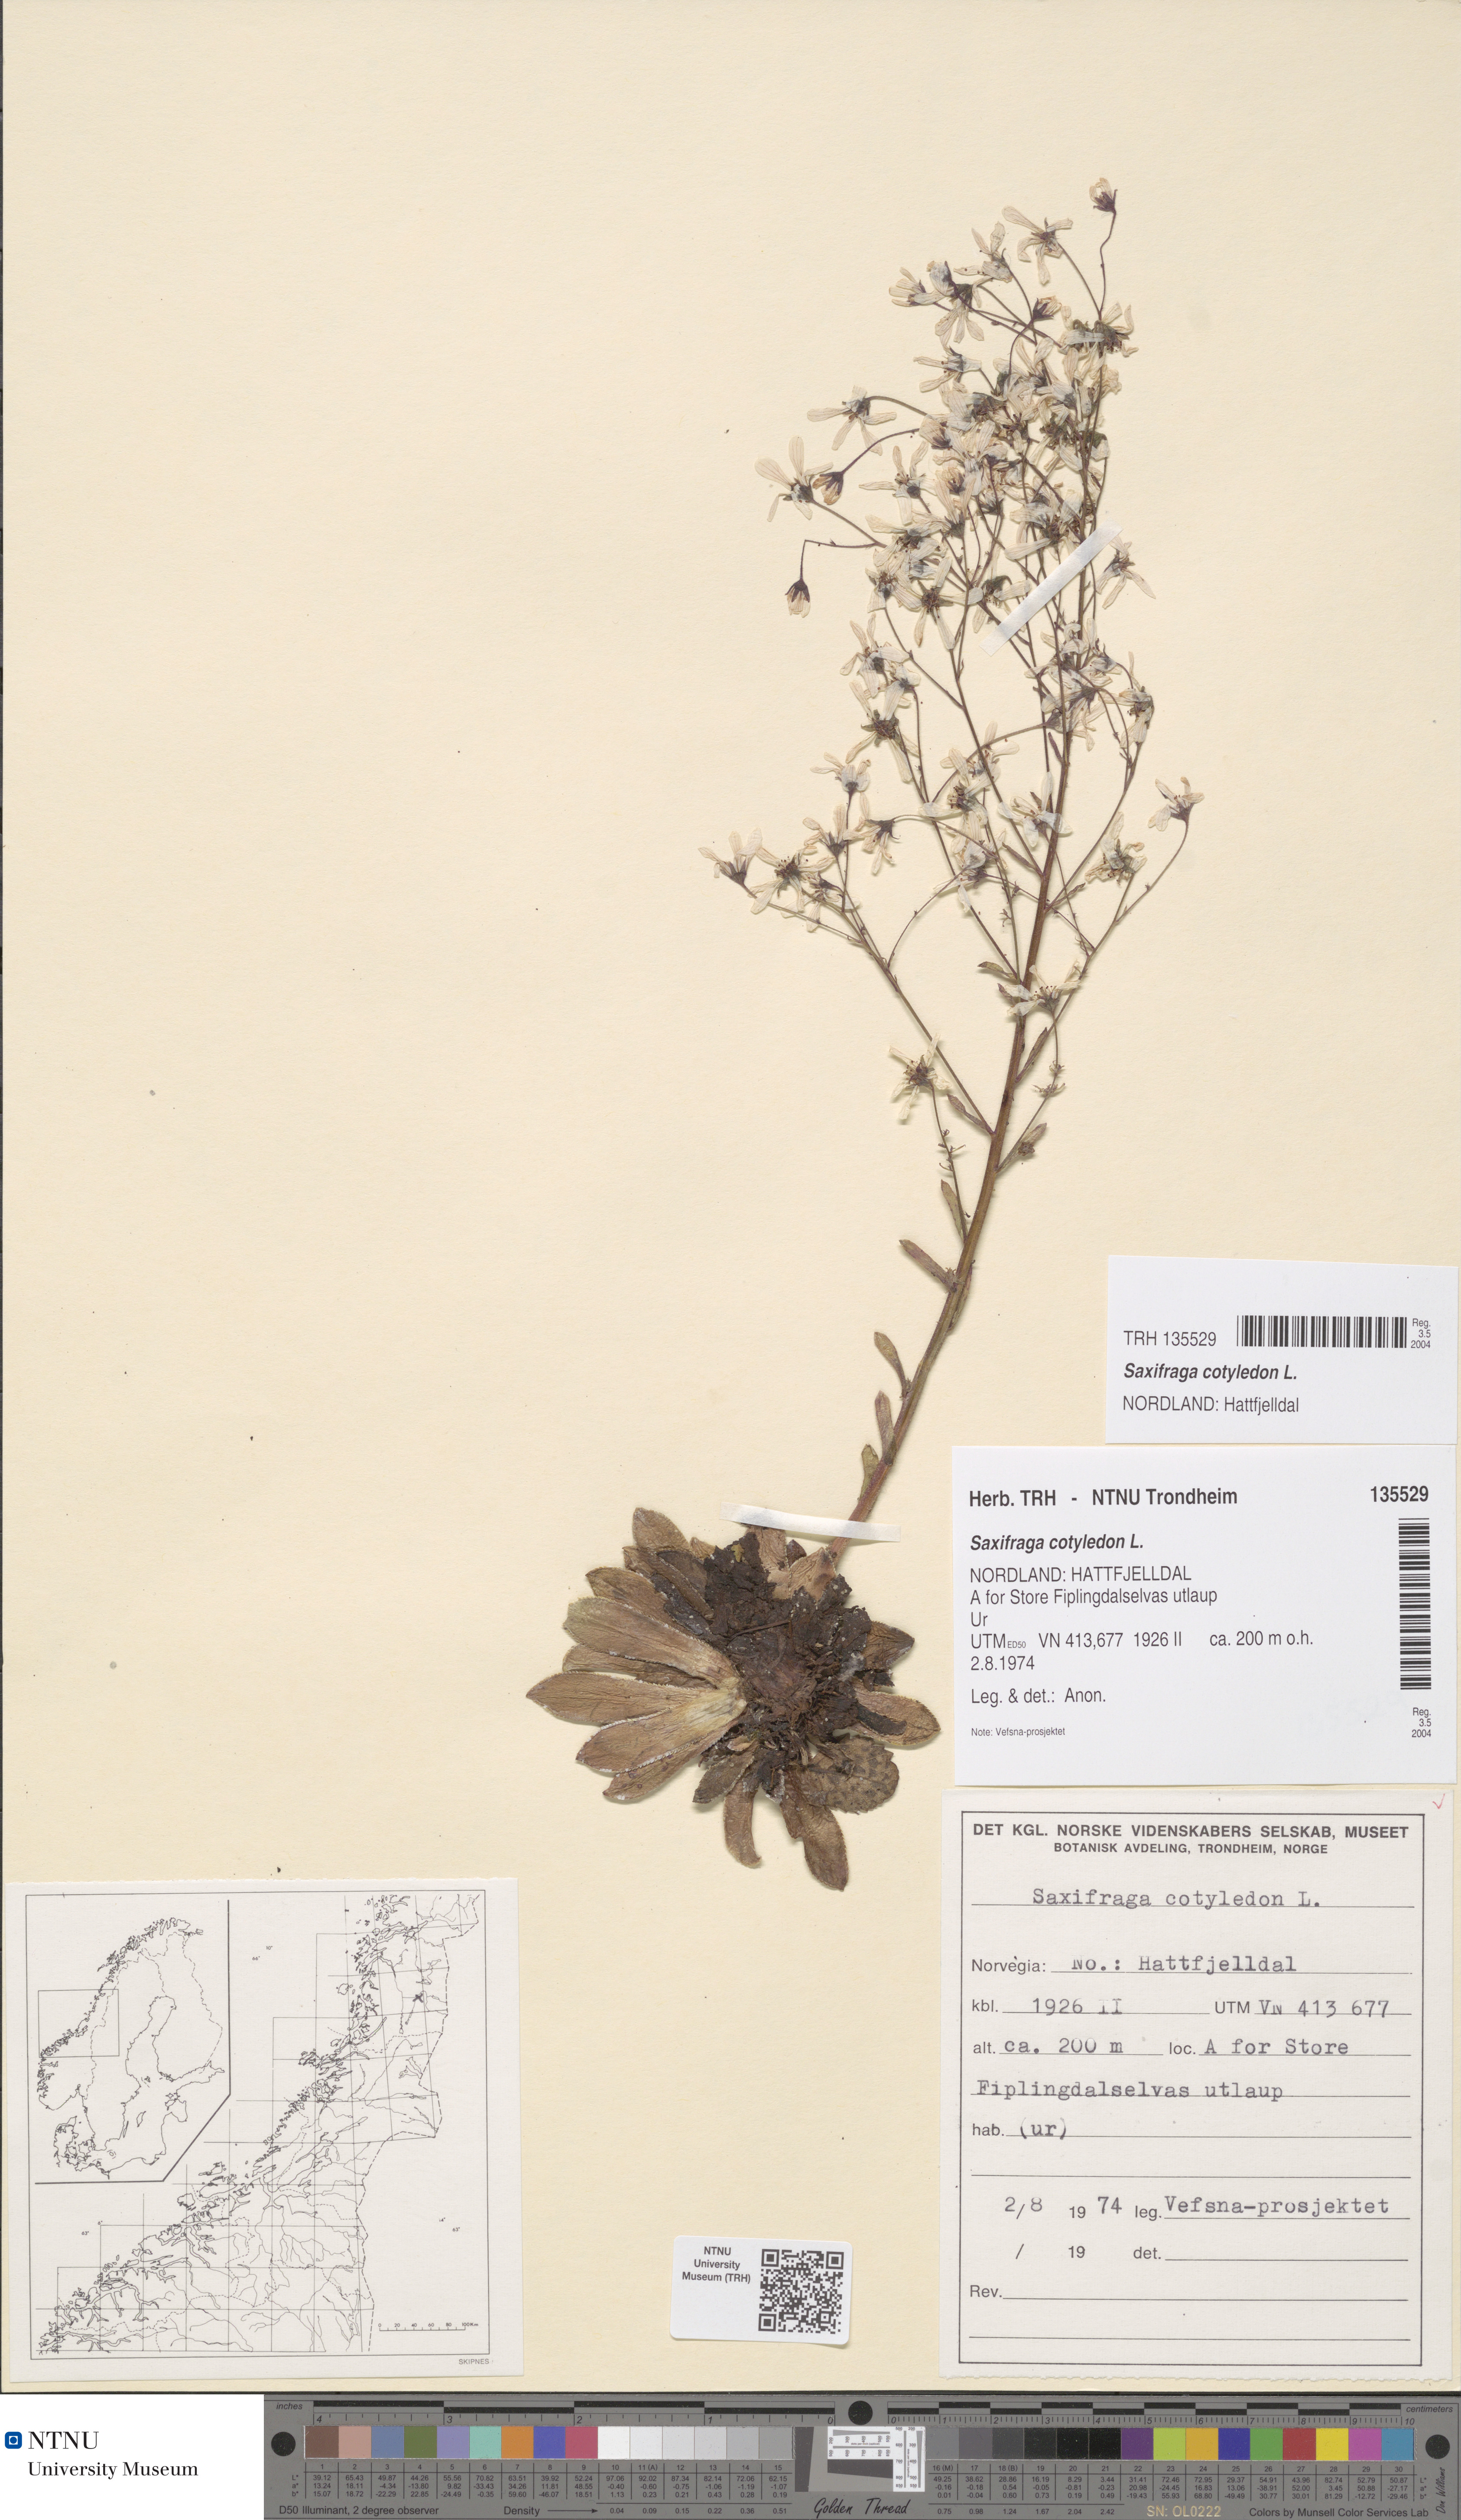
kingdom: Plantae
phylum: Tracheophyta
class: Magnoliopsida
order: Saxifragales
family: Saxifragaceae
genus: Saxifraga
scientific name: Saxifraga cotyledon
